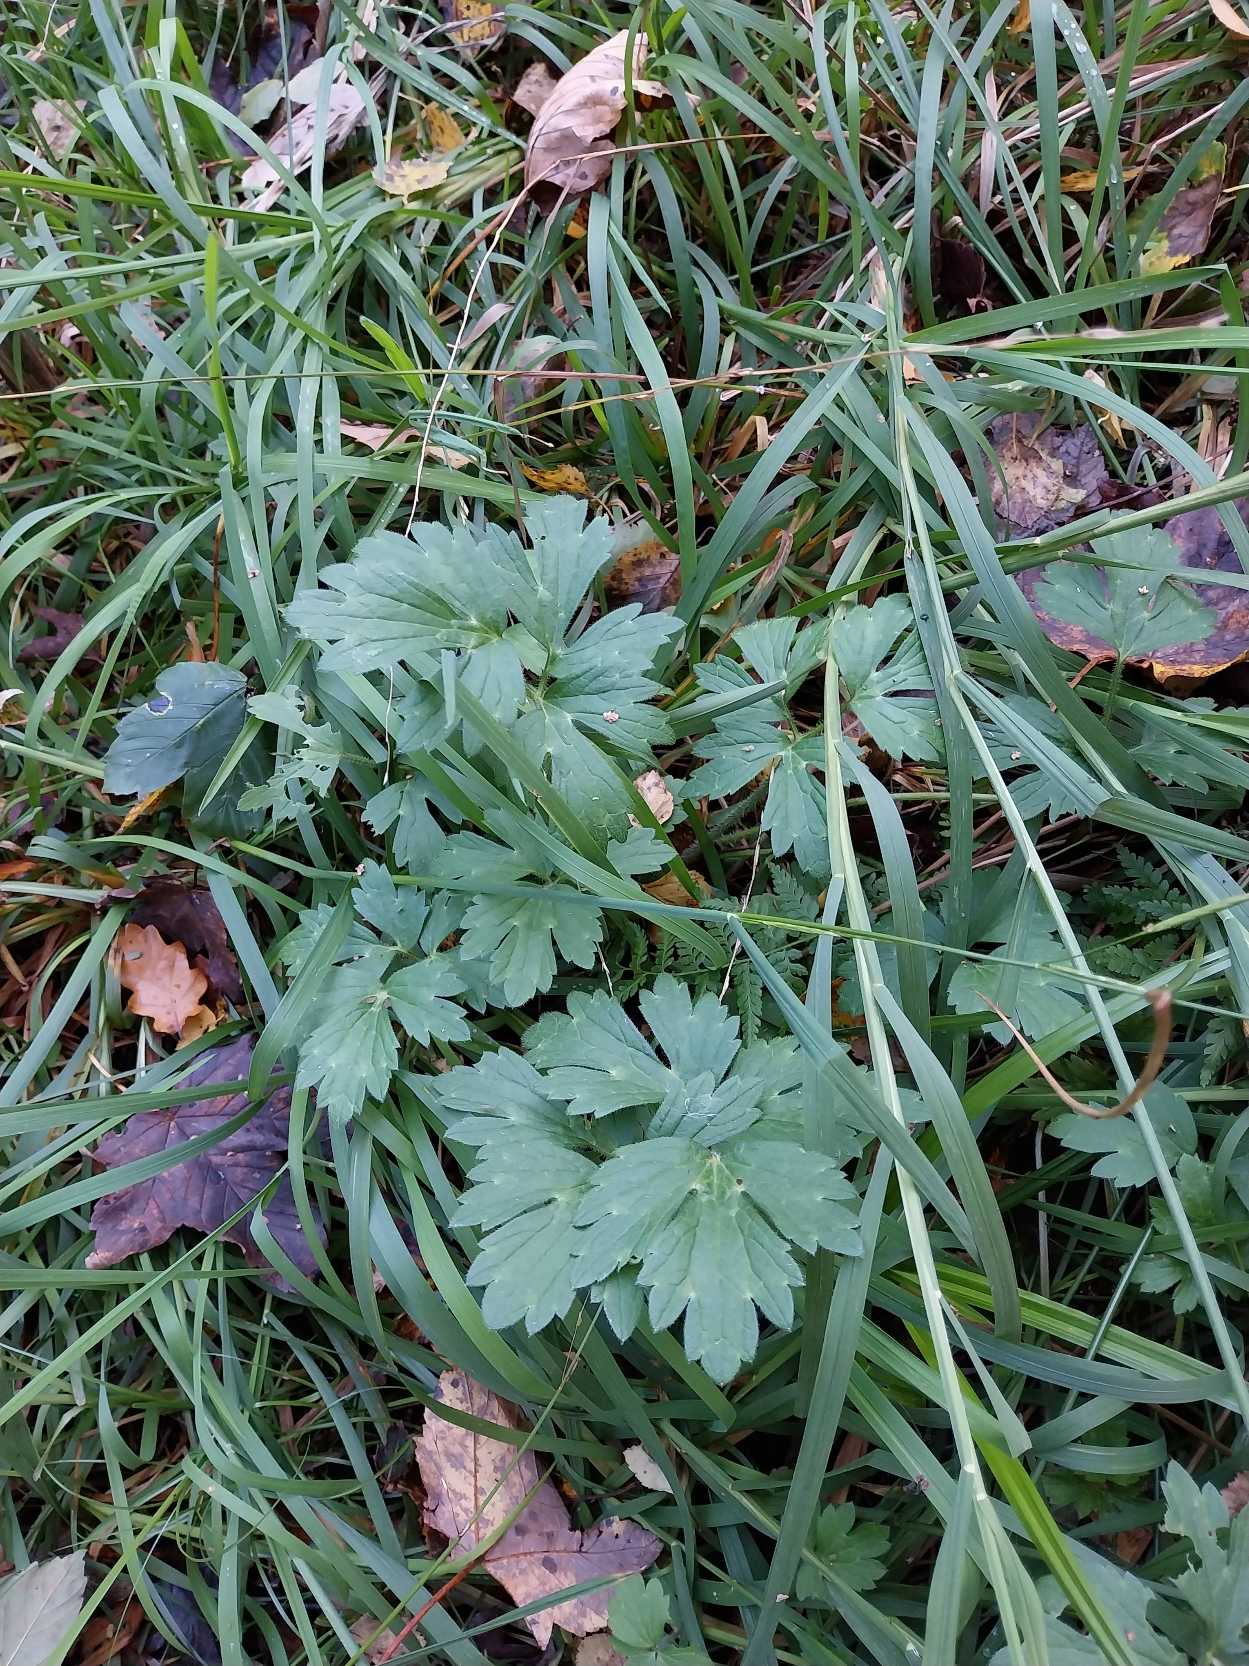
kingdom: Plantae
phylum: Tracheophyta
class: Magnoliopsida
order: Ranunculales
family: Ranunculaceae
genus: Ranunculus
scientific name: Ranunculus repens
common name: Lav ranunkel
